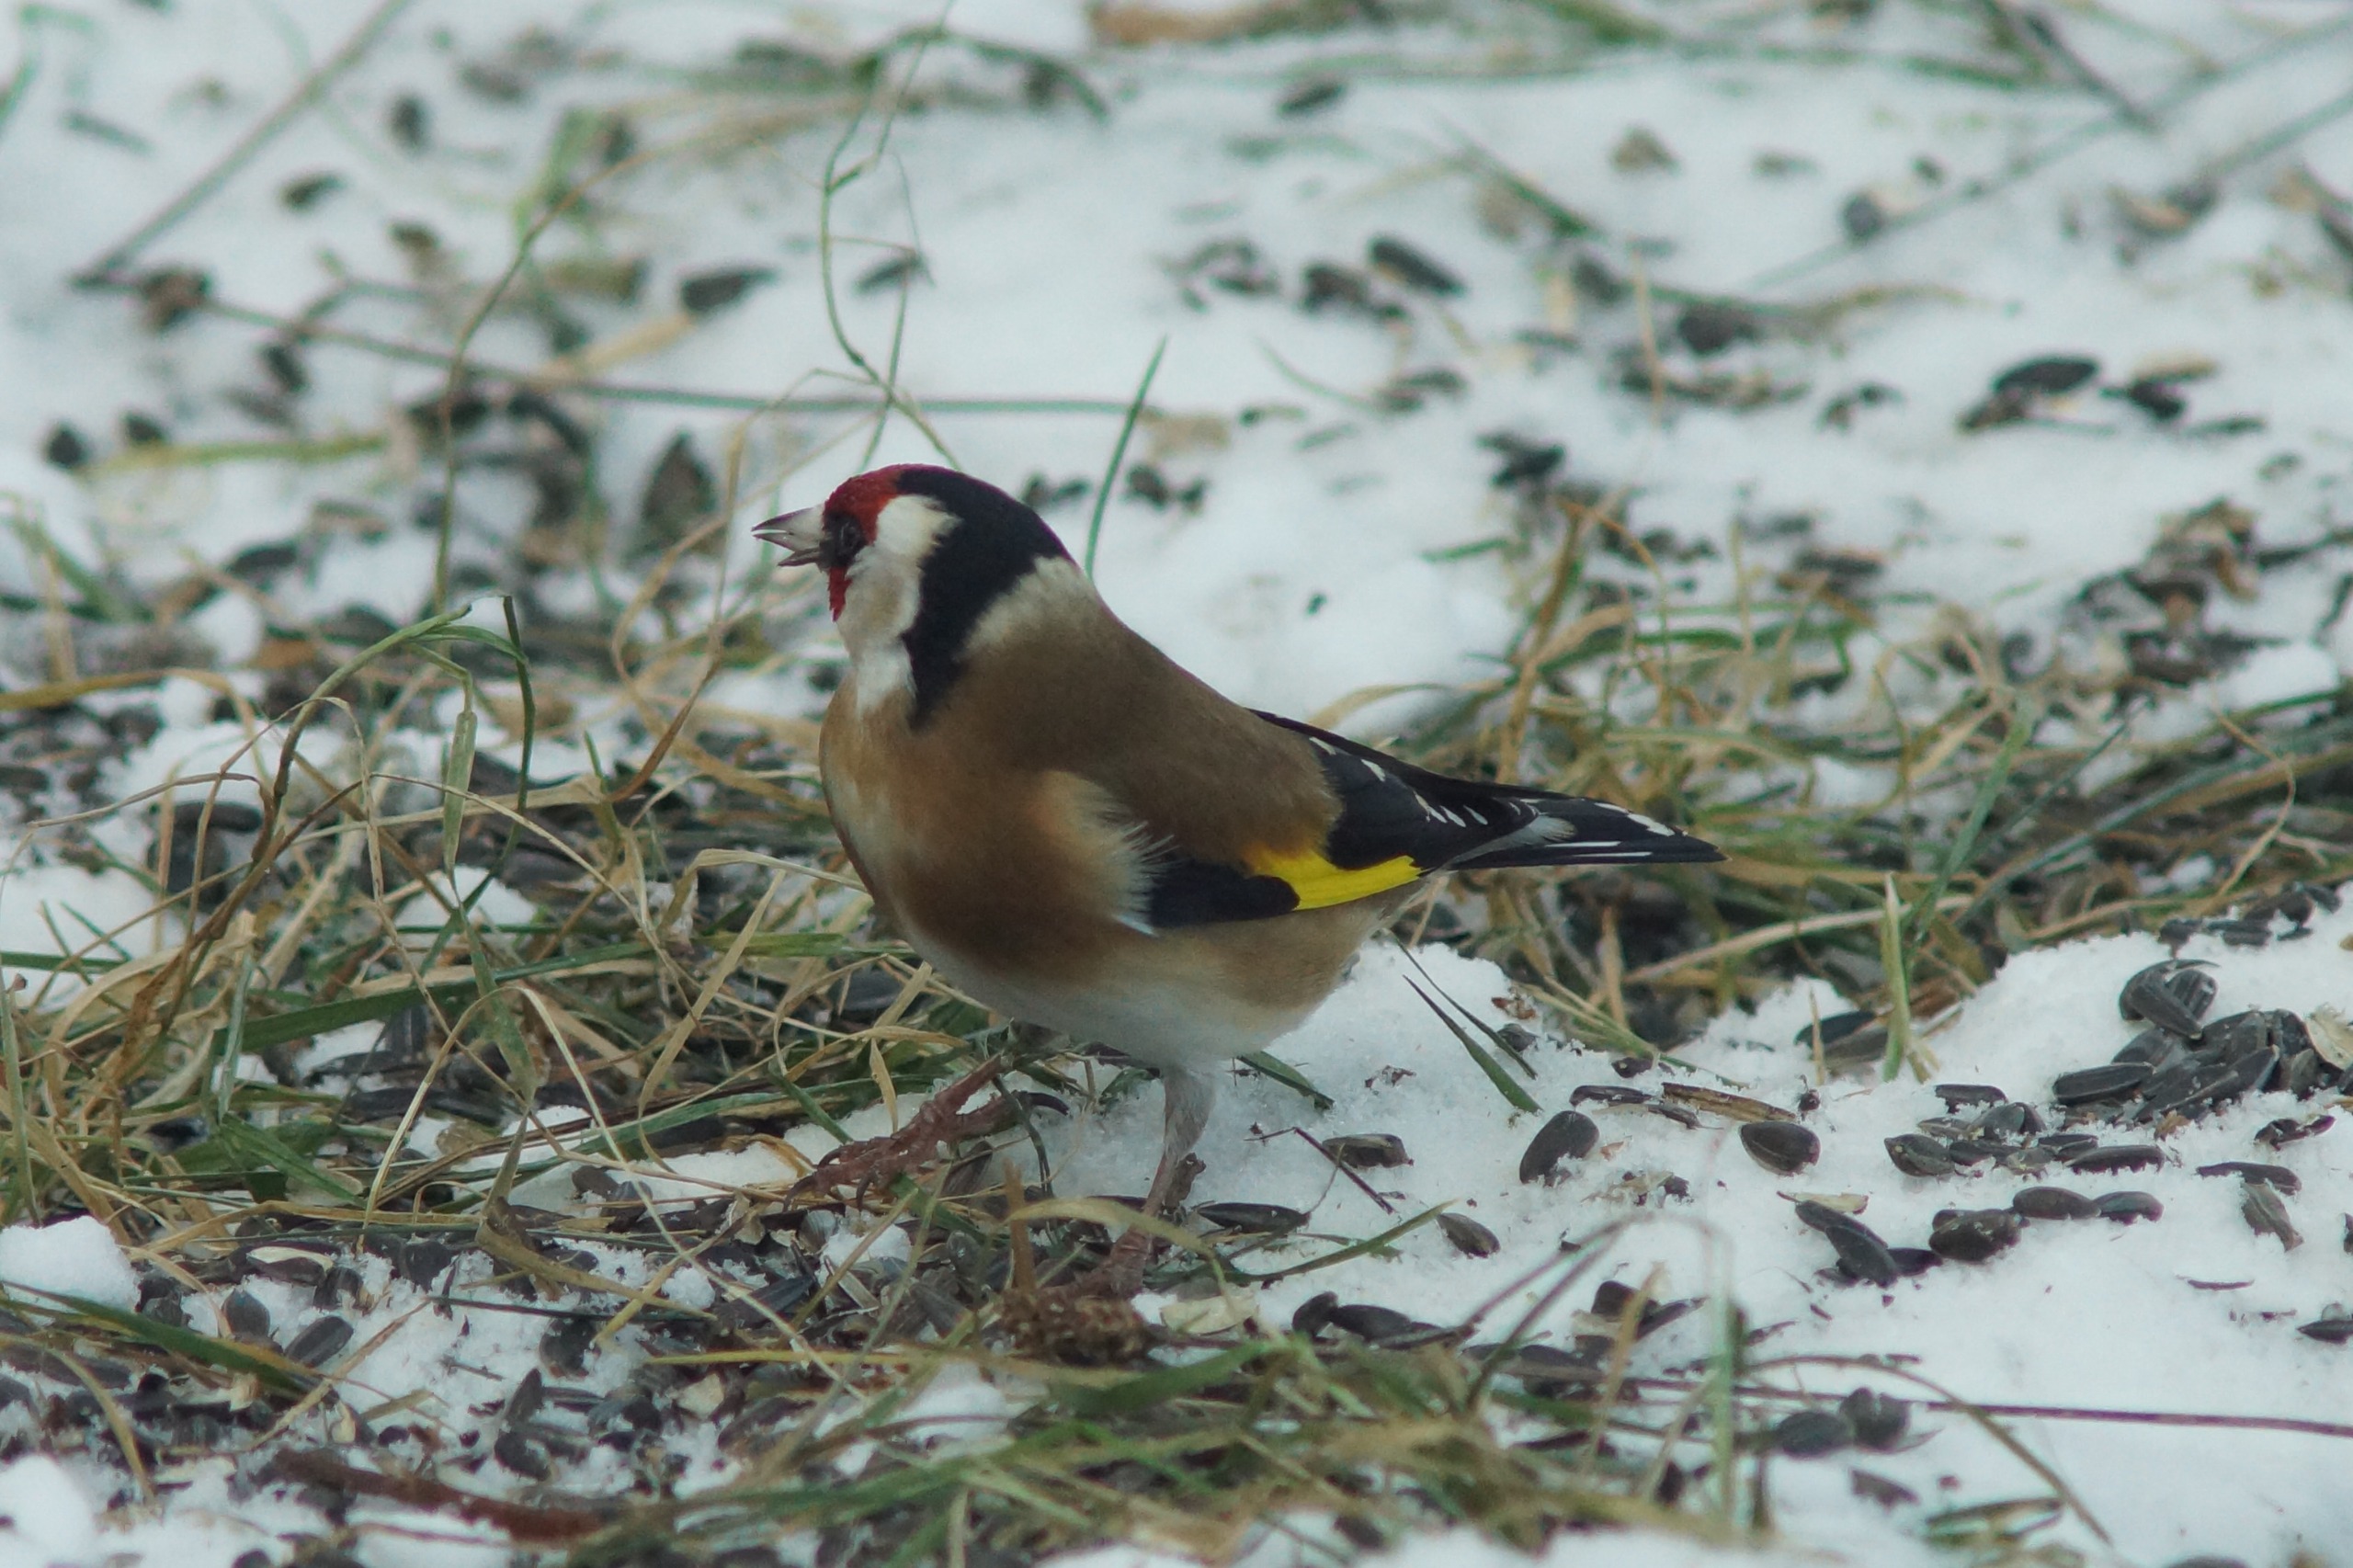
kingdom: Animalia
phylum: Chordata
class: Aves
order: Passeriformes
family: Fringillidae
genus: Carduelis
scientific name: Carduelis carduelis
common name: Stillits
